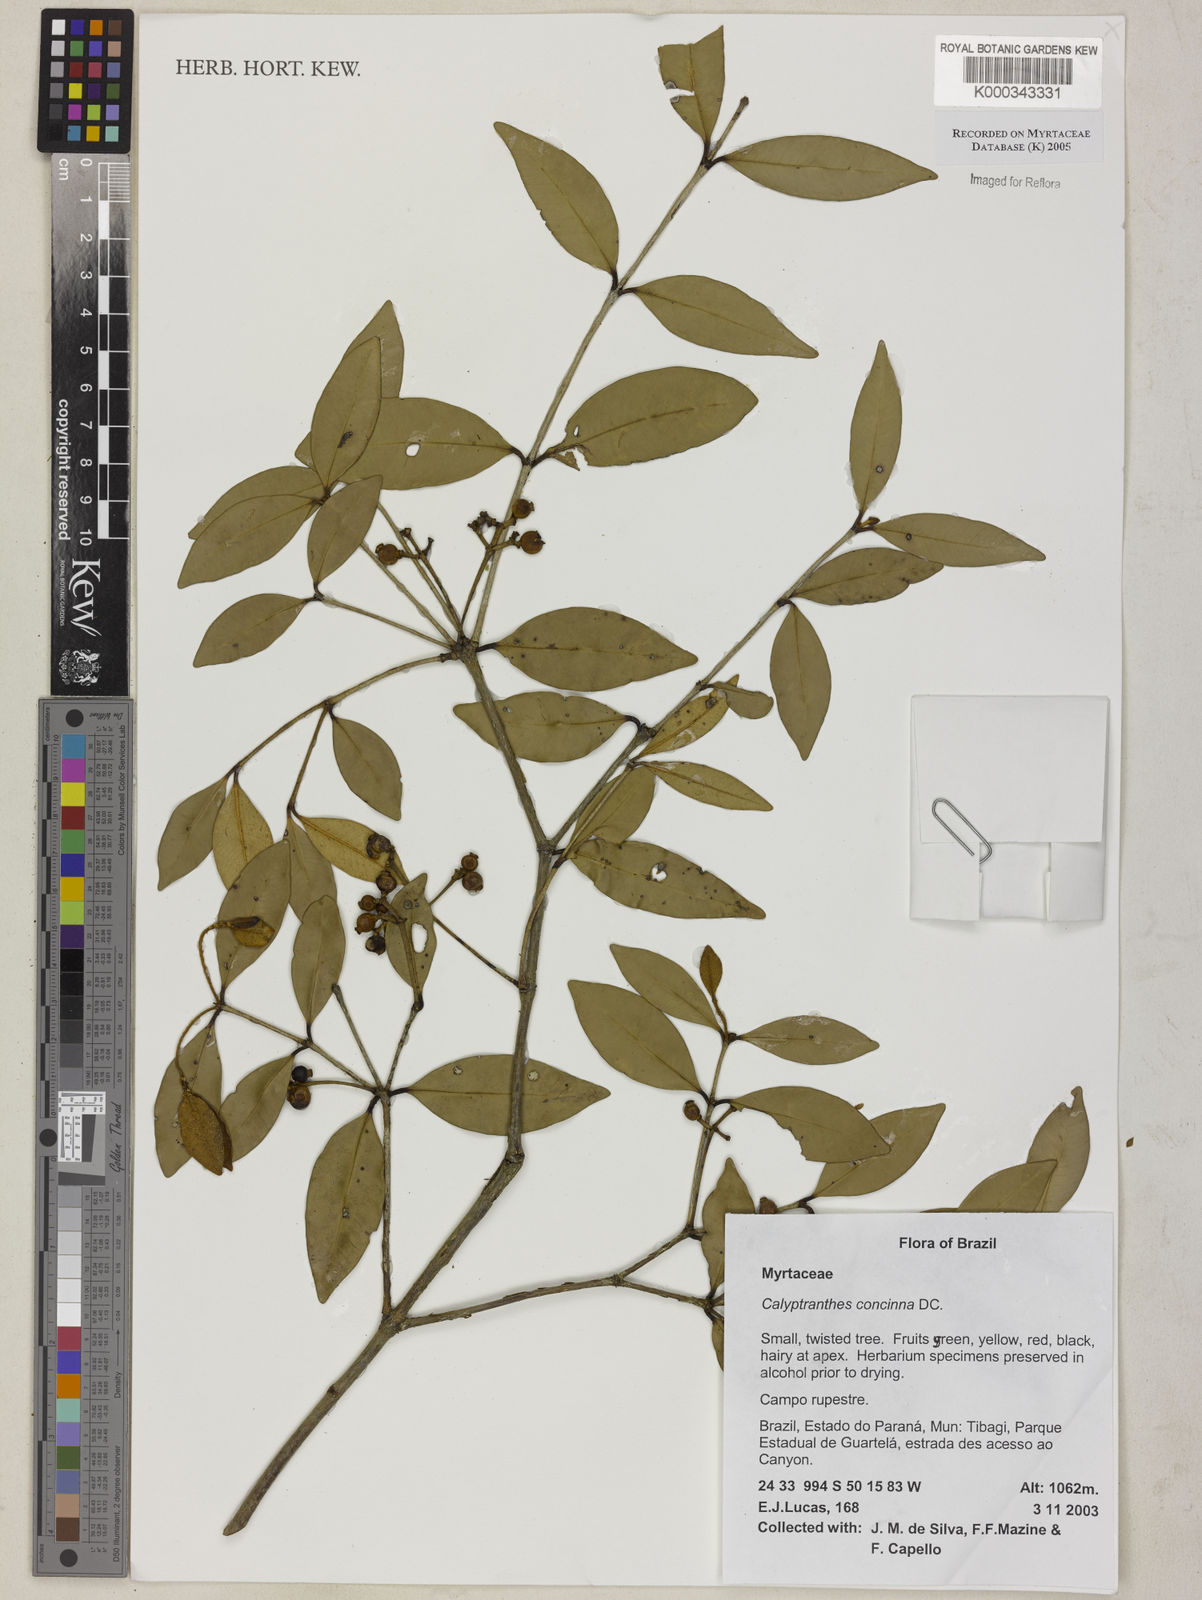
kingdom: Plantae
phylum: Tracheophyta
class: Magnoliopsida
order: Myrtales
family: Myrtaceae
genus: Myrcia
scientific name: Myrcia cruciflora
